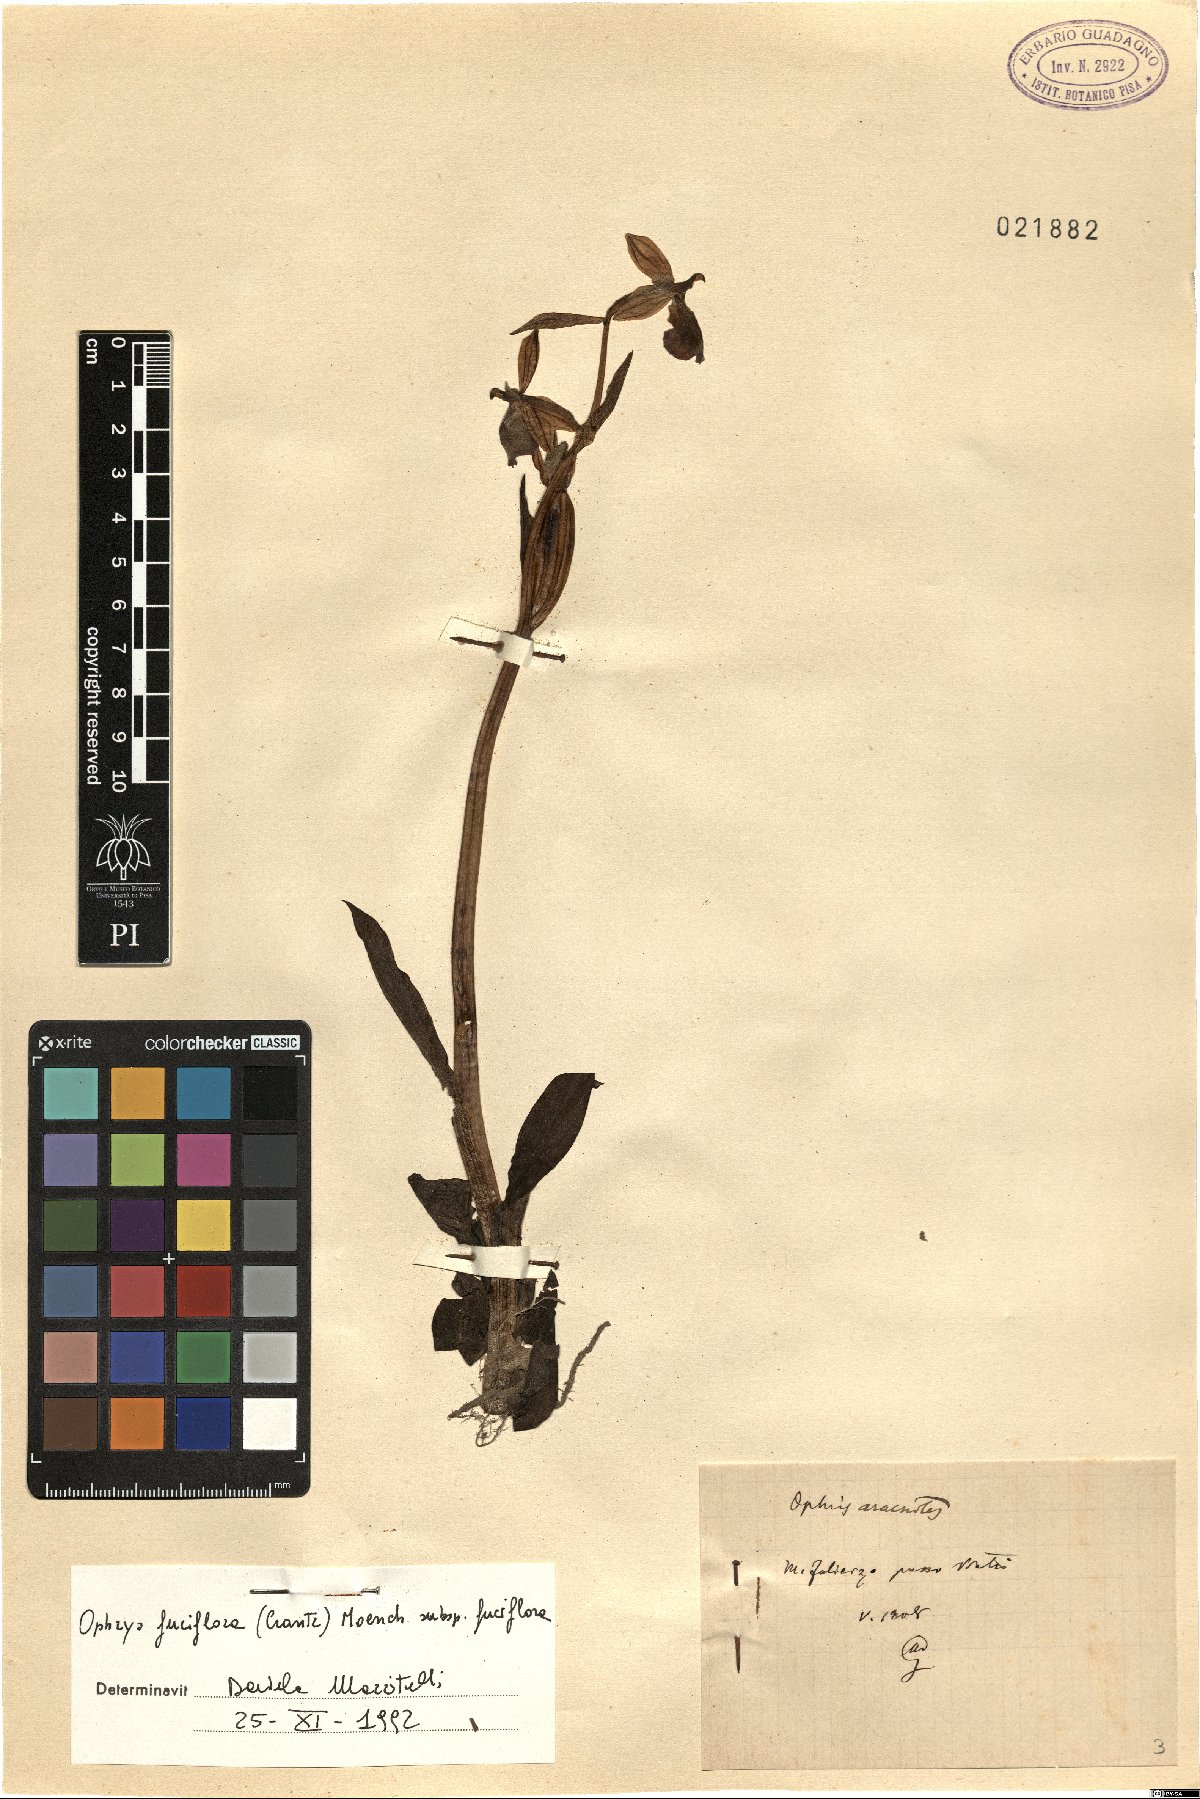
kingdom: Plantae
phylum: Tracheophyta
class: Liliopsida
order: Asparagales
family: Orchidaceae
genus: Ophrys
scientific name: Ophrys holosericea
